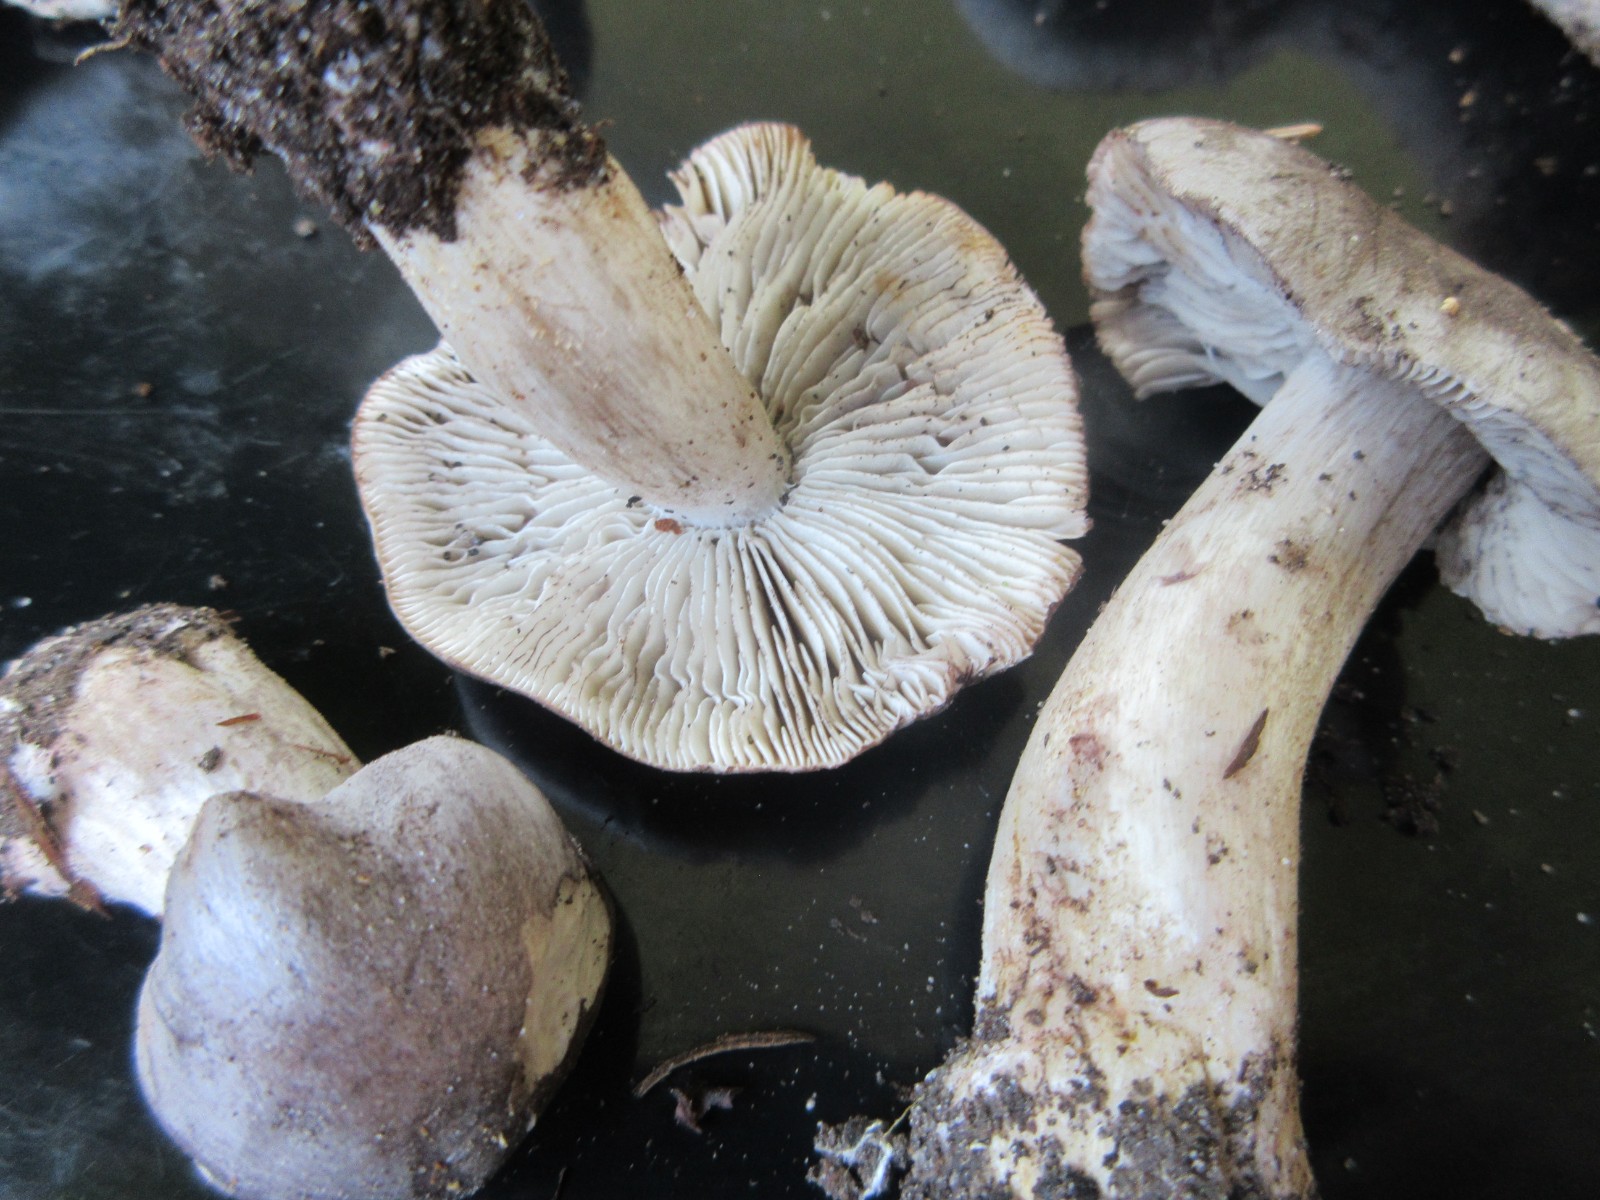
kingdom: Fungi
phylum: Basidiomycota
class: Agaricomycetes
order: Agaricales
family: Tricholomataceae
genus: Tricholoma
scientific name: Tricholoma sciodes
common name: stribet ridderhat
